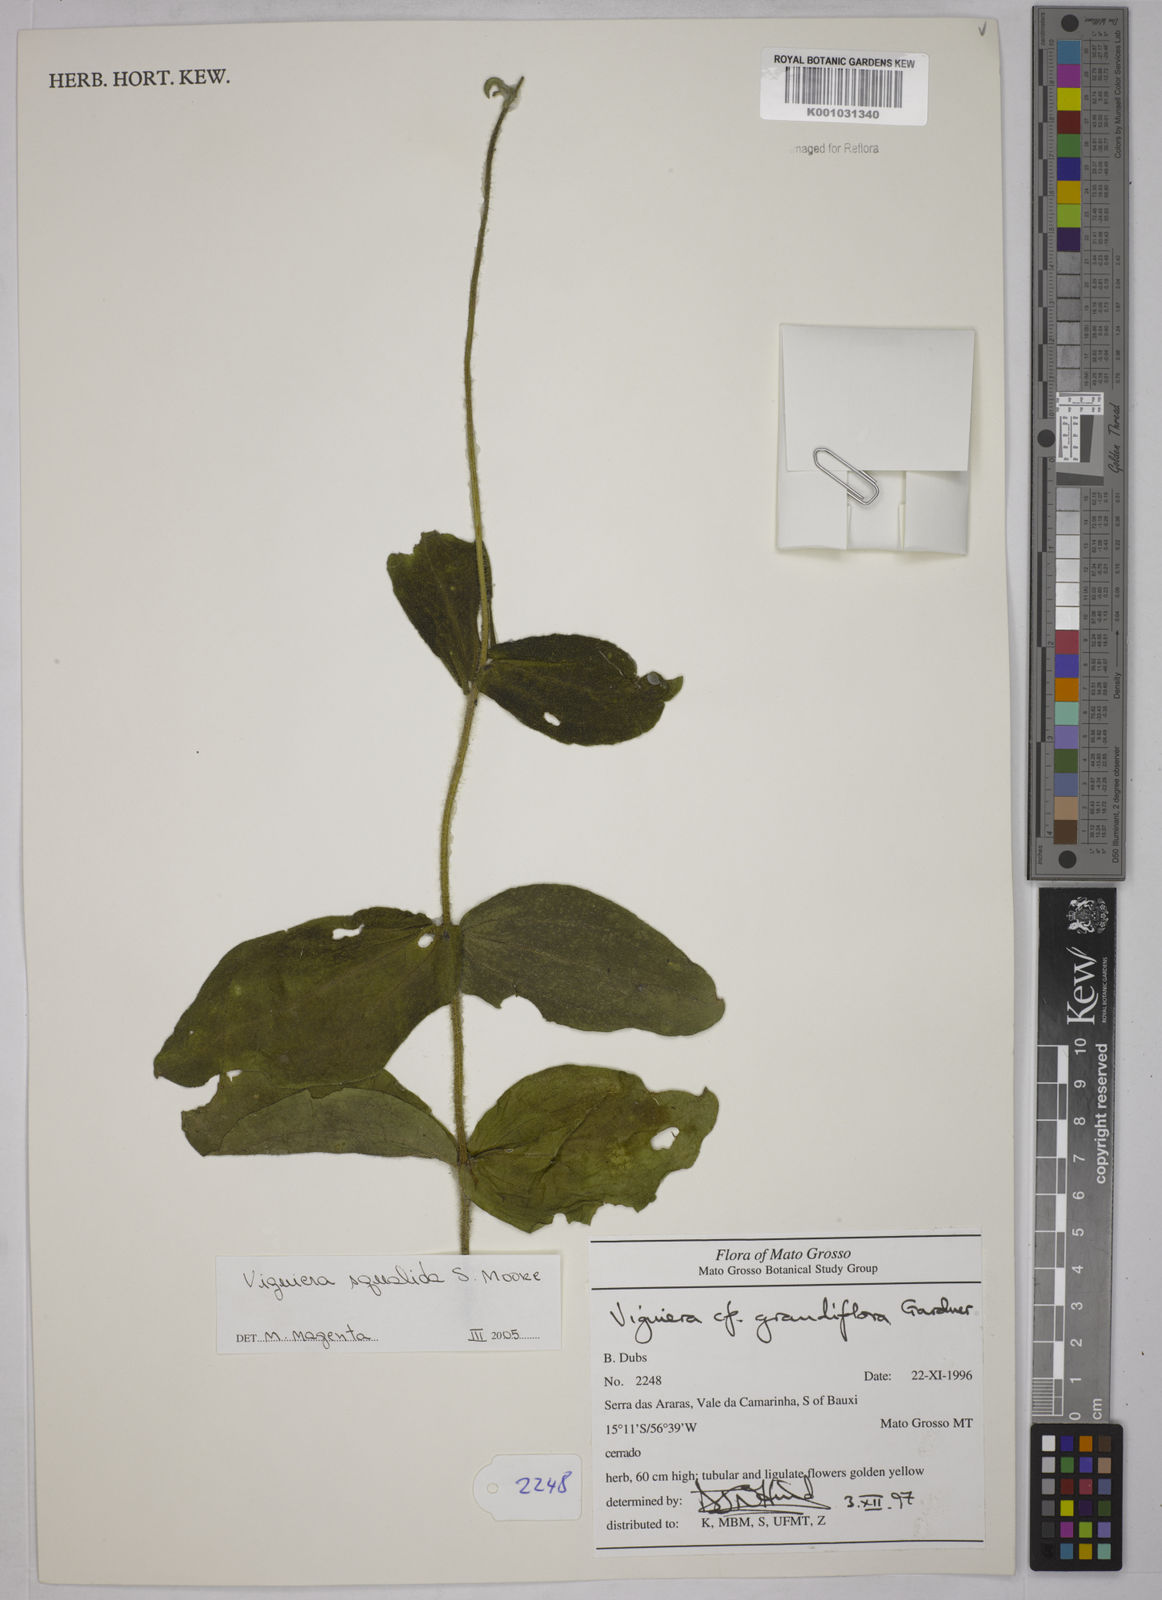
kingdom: Plantae
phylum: Tracheophyta
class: Magnoliopsida
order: Asterales
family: Asteraceae
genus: Aldama
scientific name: Aldama squalida
